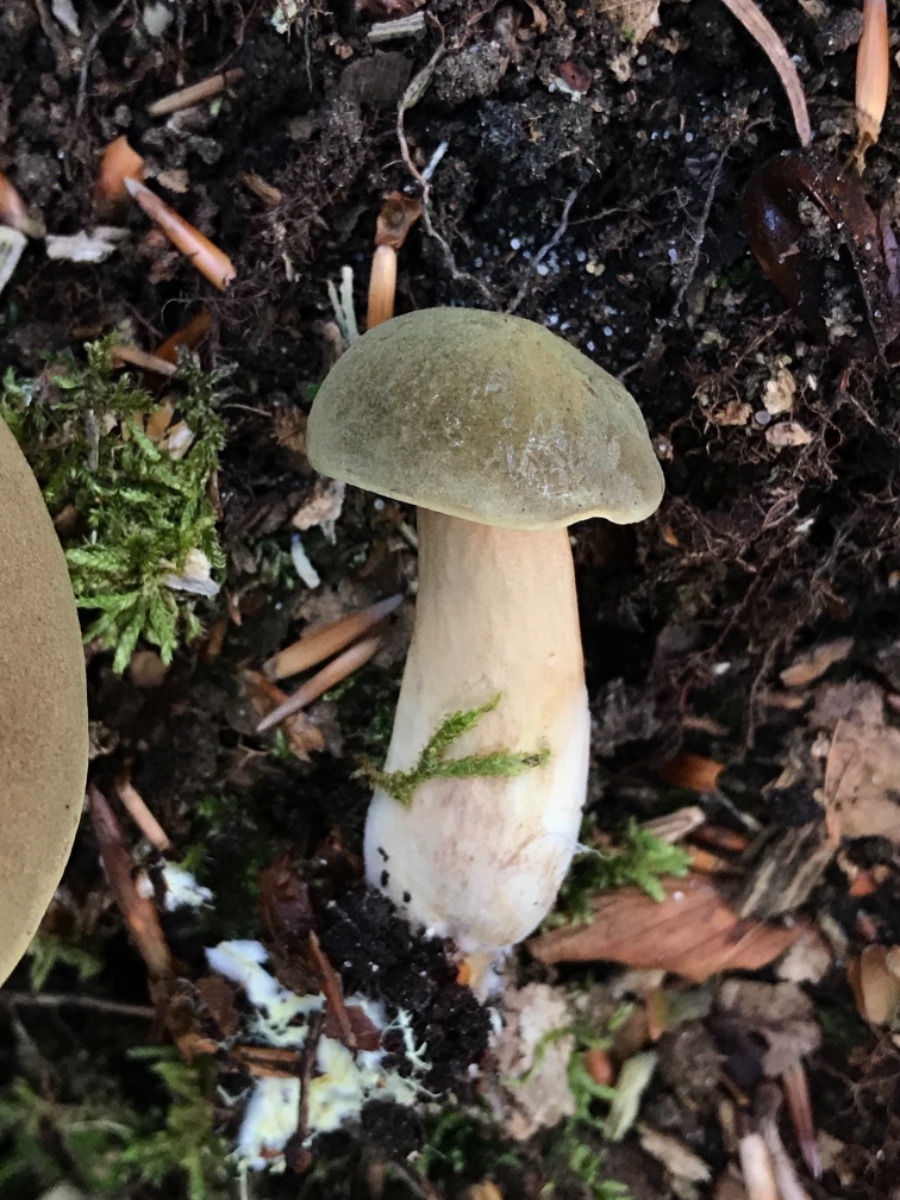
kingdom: Fungi
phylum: Basidiomycota
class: Agaricomycetes
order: Boletales
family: Boletaceae
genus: Xerocomus
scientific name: Xerocomus ferrugineus
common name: vaskeskinds-rørhat
